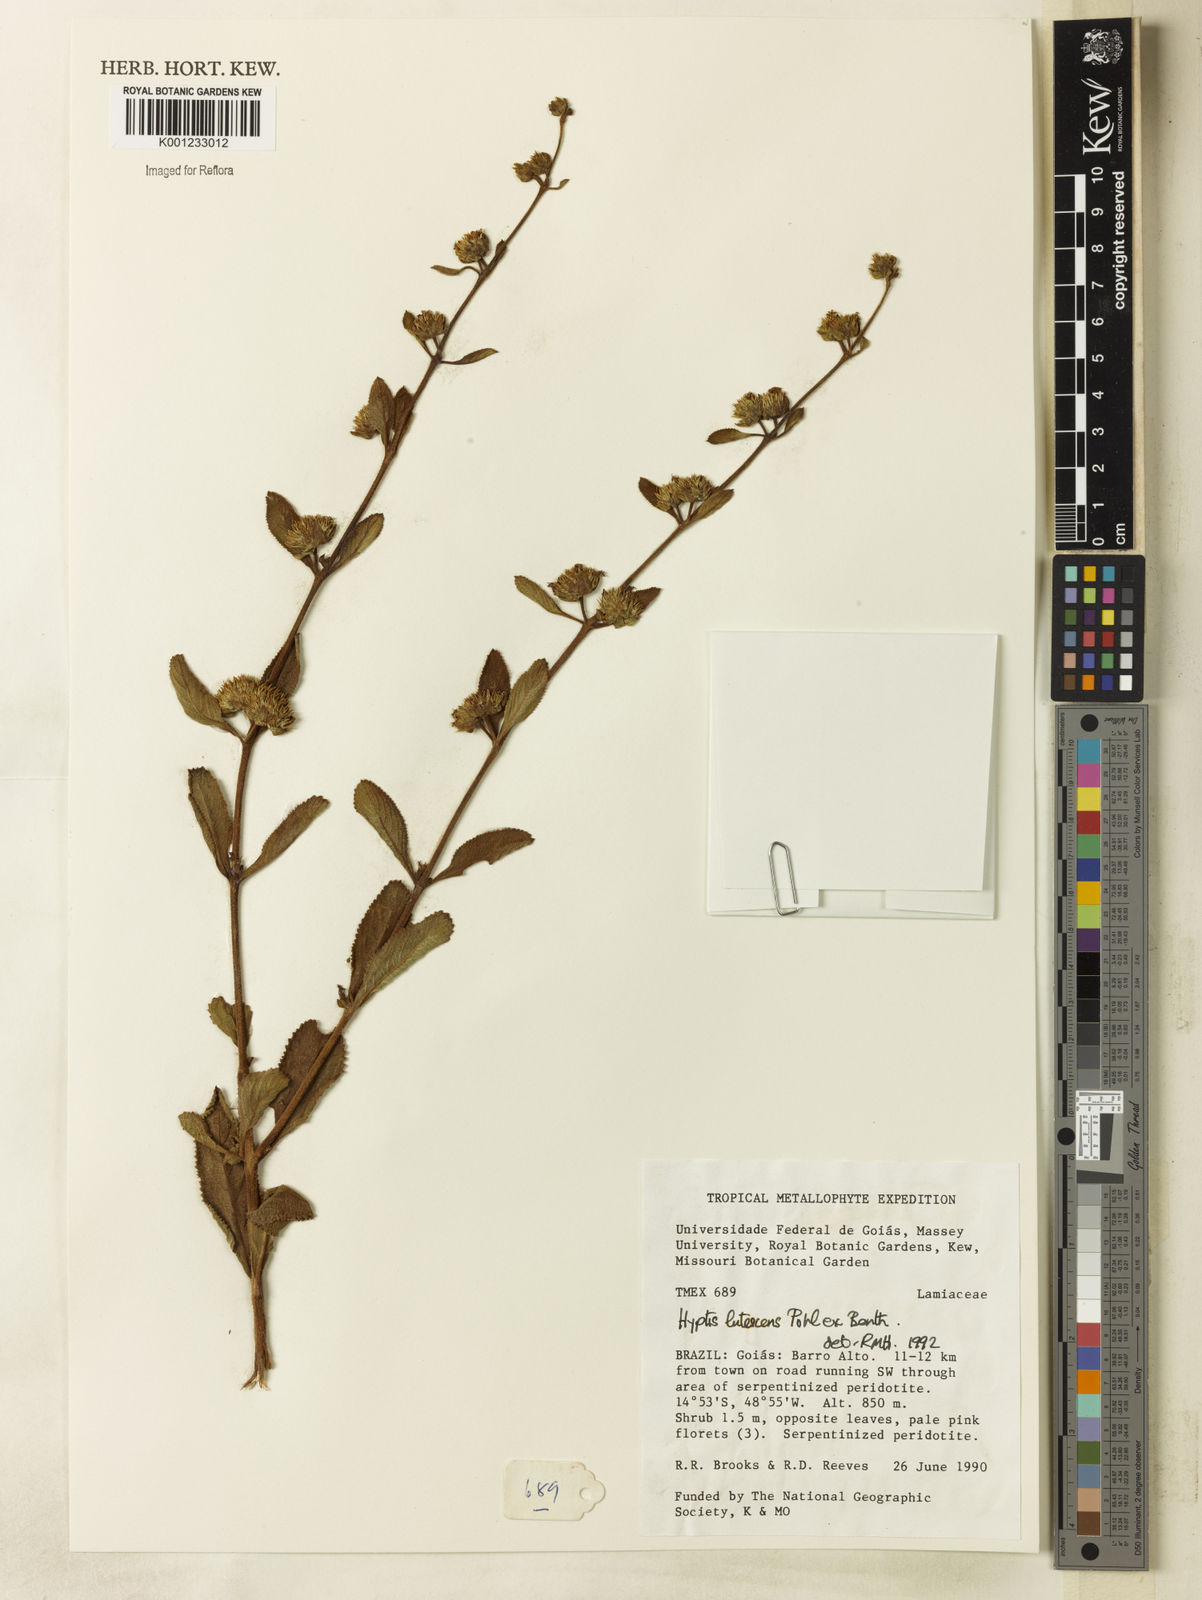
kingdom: Plantae
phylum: Tracheophyta
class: Magnoliopsida
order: Lamiales
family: Lamiaceae
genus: Hyptis
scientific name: Hyptis lutescens
